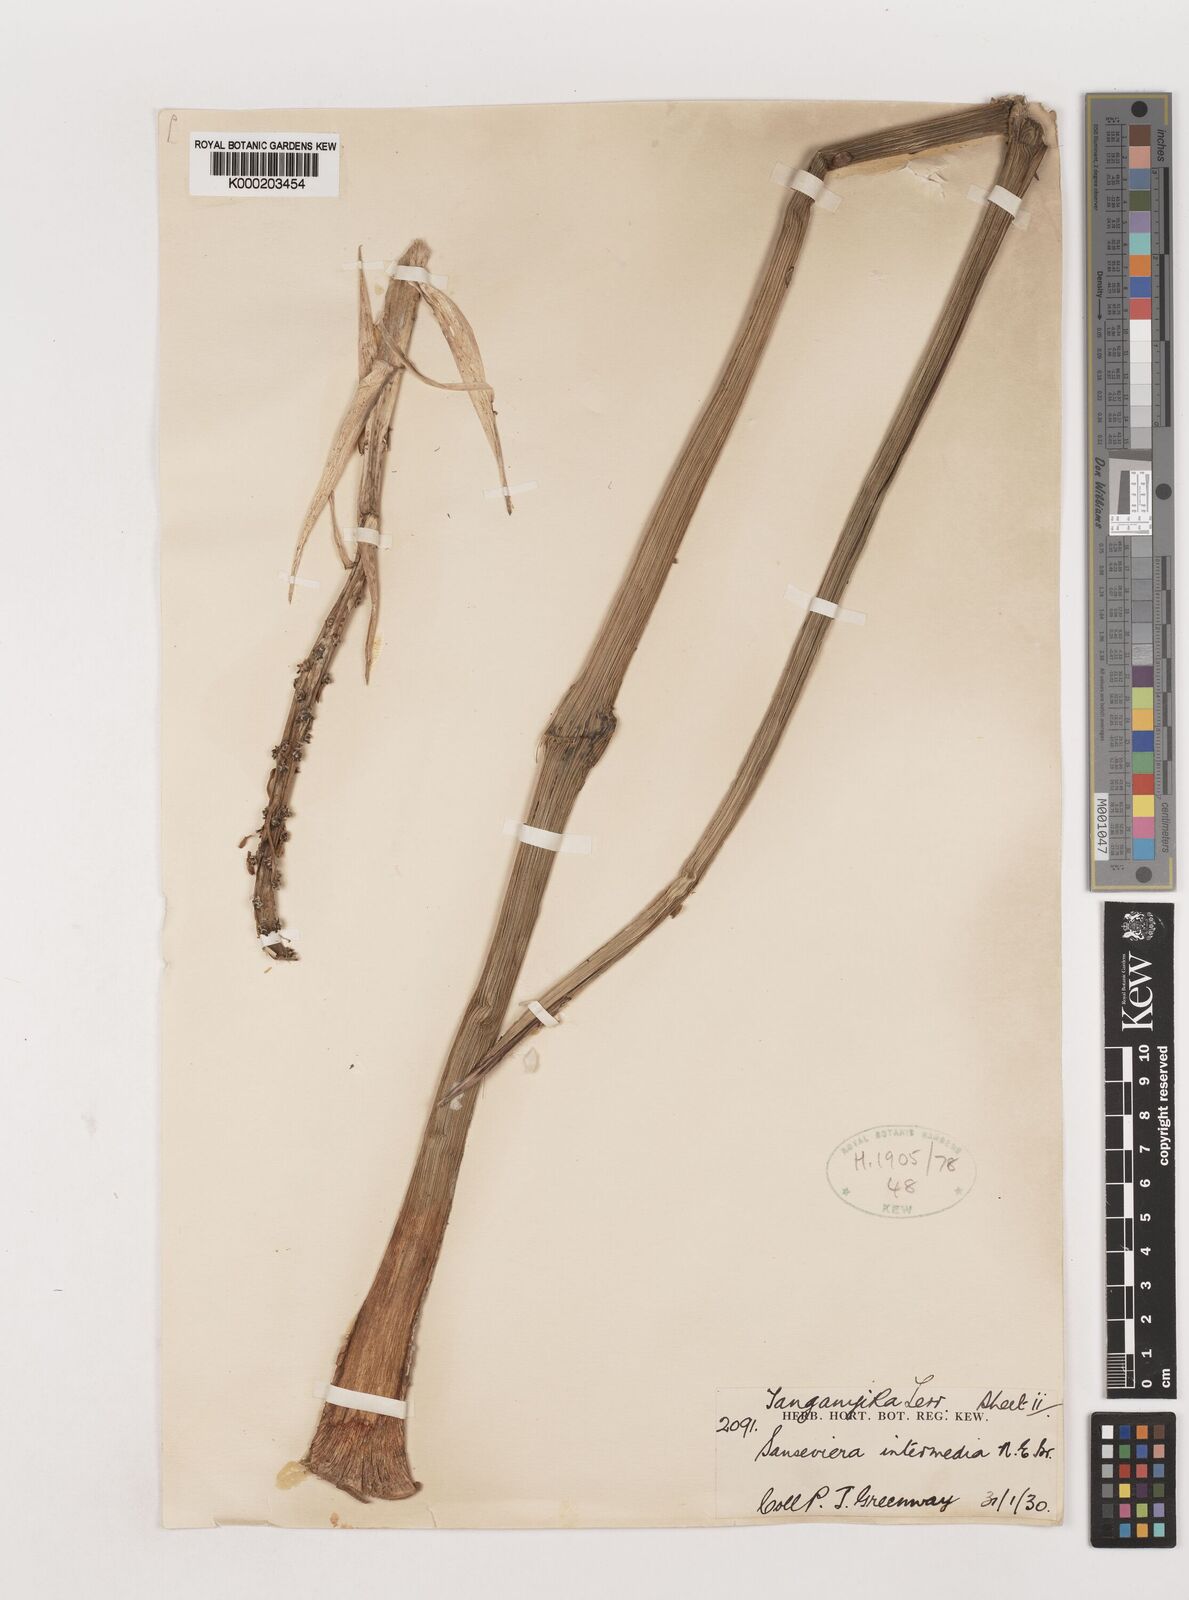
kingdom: Plantae
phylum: Tracheophyta
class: Liliopsida
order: Asparagales
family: Asparagaceae
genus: Dracaena
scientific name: Dracaena volkensii
